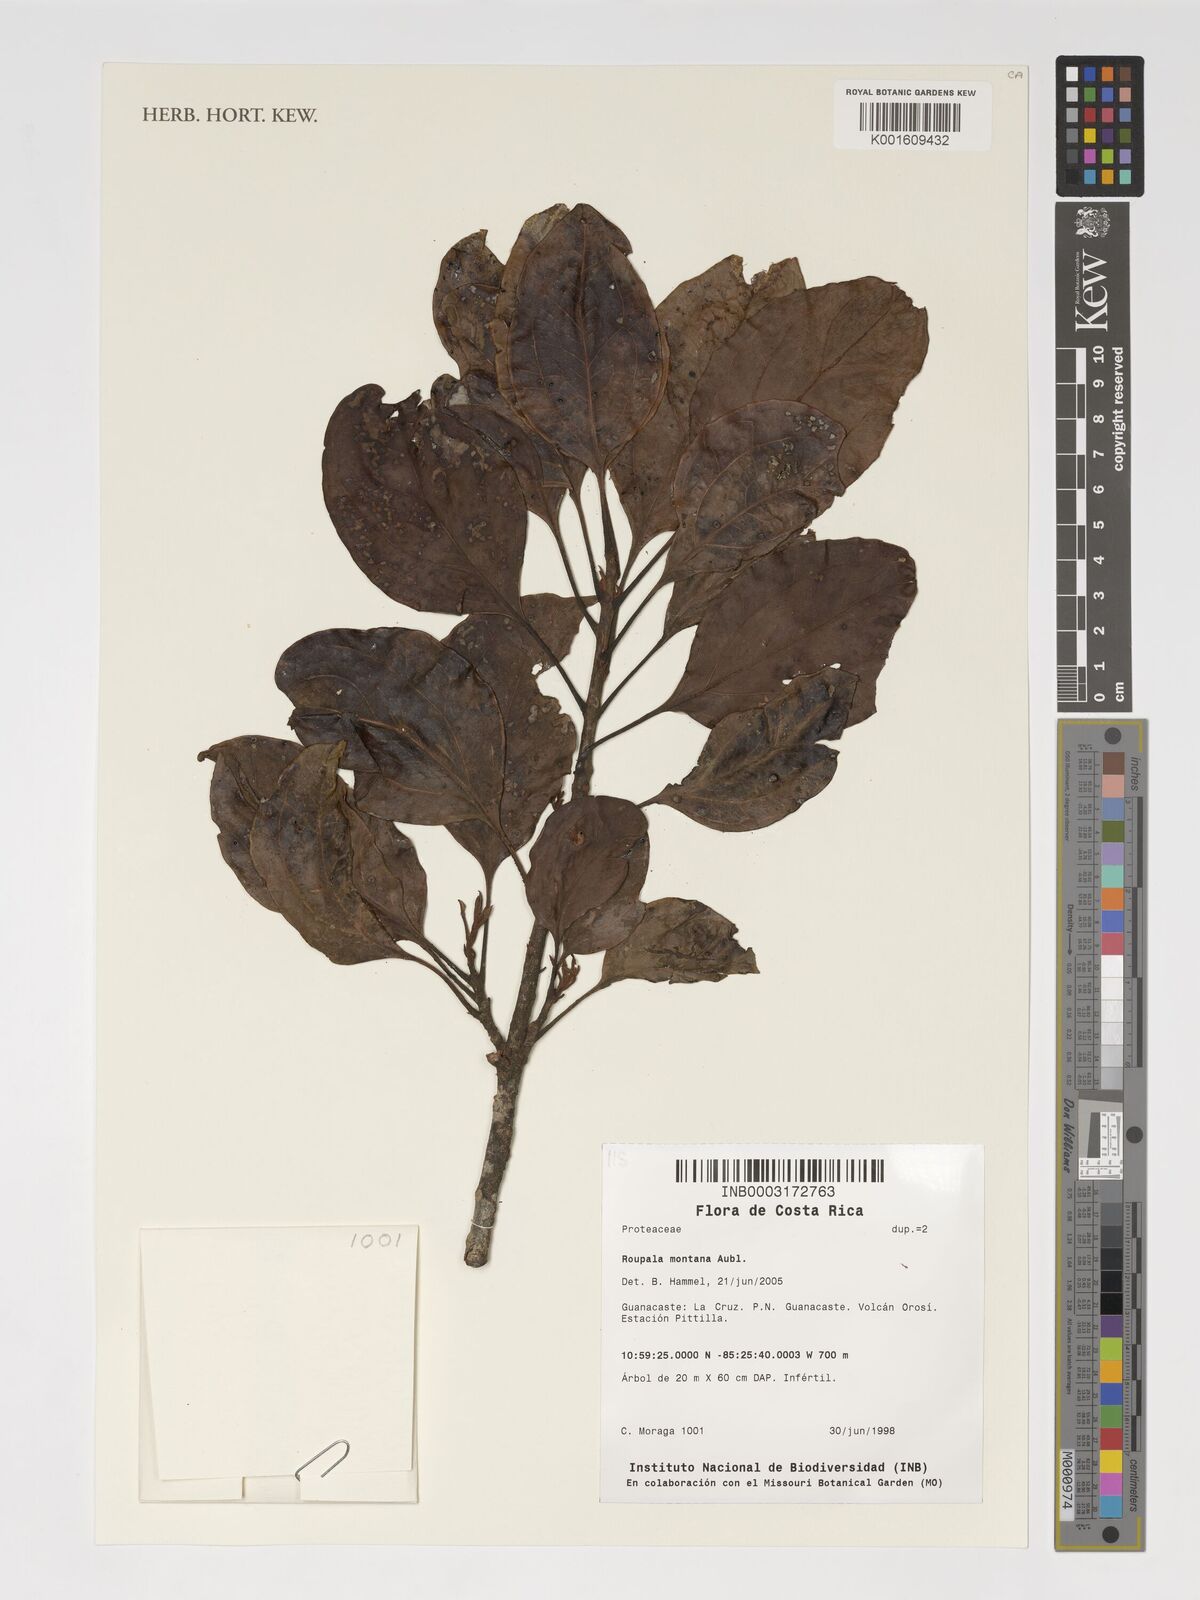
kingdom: Plantae
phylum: Tracheophyta
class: Magnoliopsida
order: Proteales
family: Proteaceae
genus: Roupala
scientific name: Roupala montana
